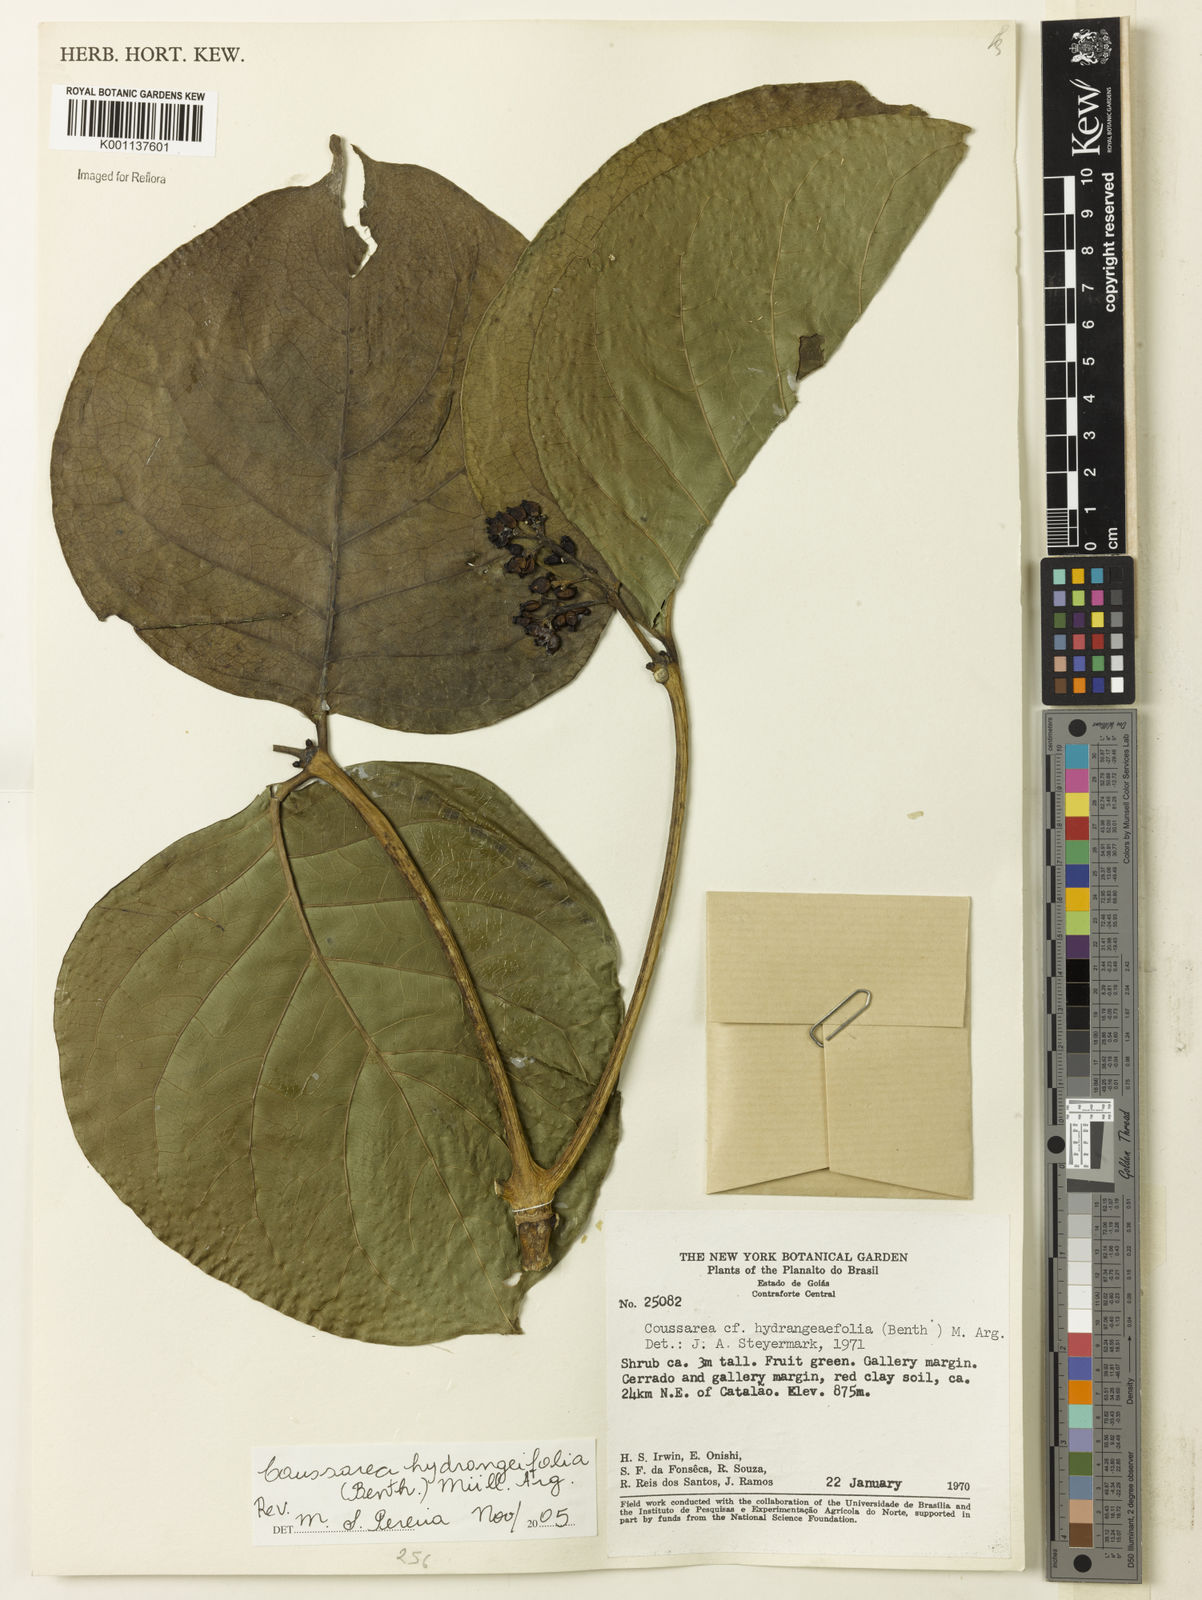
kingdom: Plantae
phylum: Tracheophyta
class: Magnoliopsida
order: Gentianales
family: Rubiaceae
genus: Coussarea
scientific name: Coussarea
